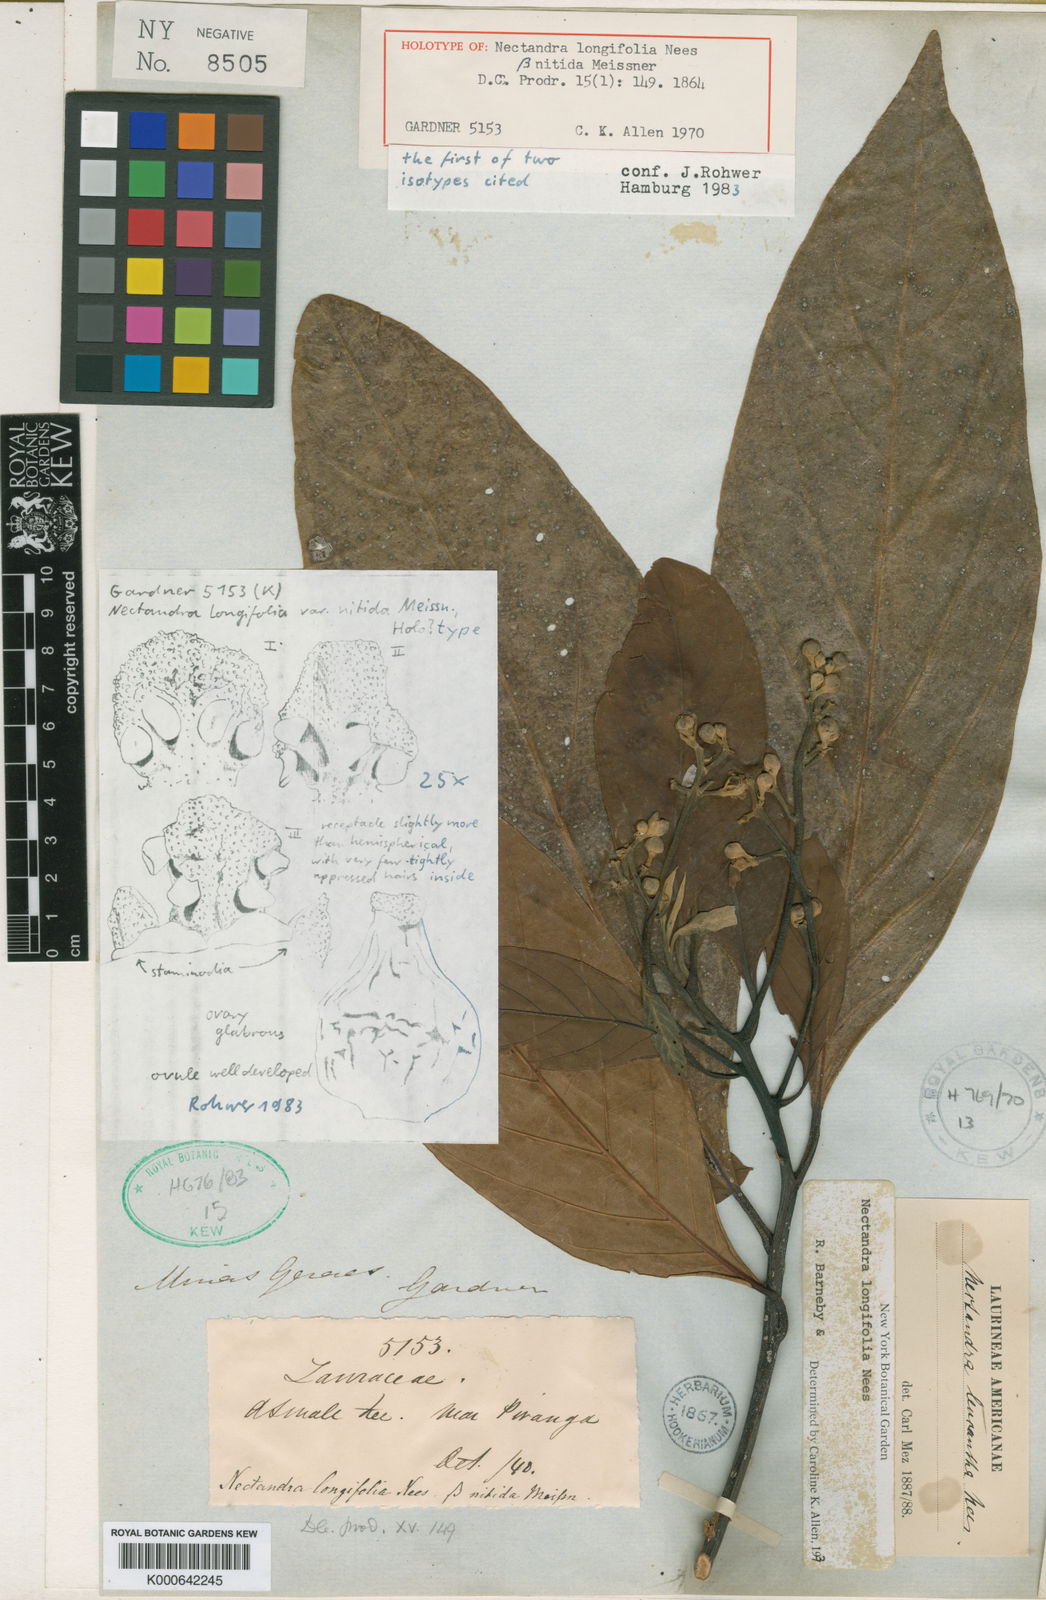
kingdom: Plantae
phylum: Tracheophyta
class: Magnoliopsida
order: Laurales
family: Lauraceae
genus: Nectandra
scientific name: Nectandra leucantha
